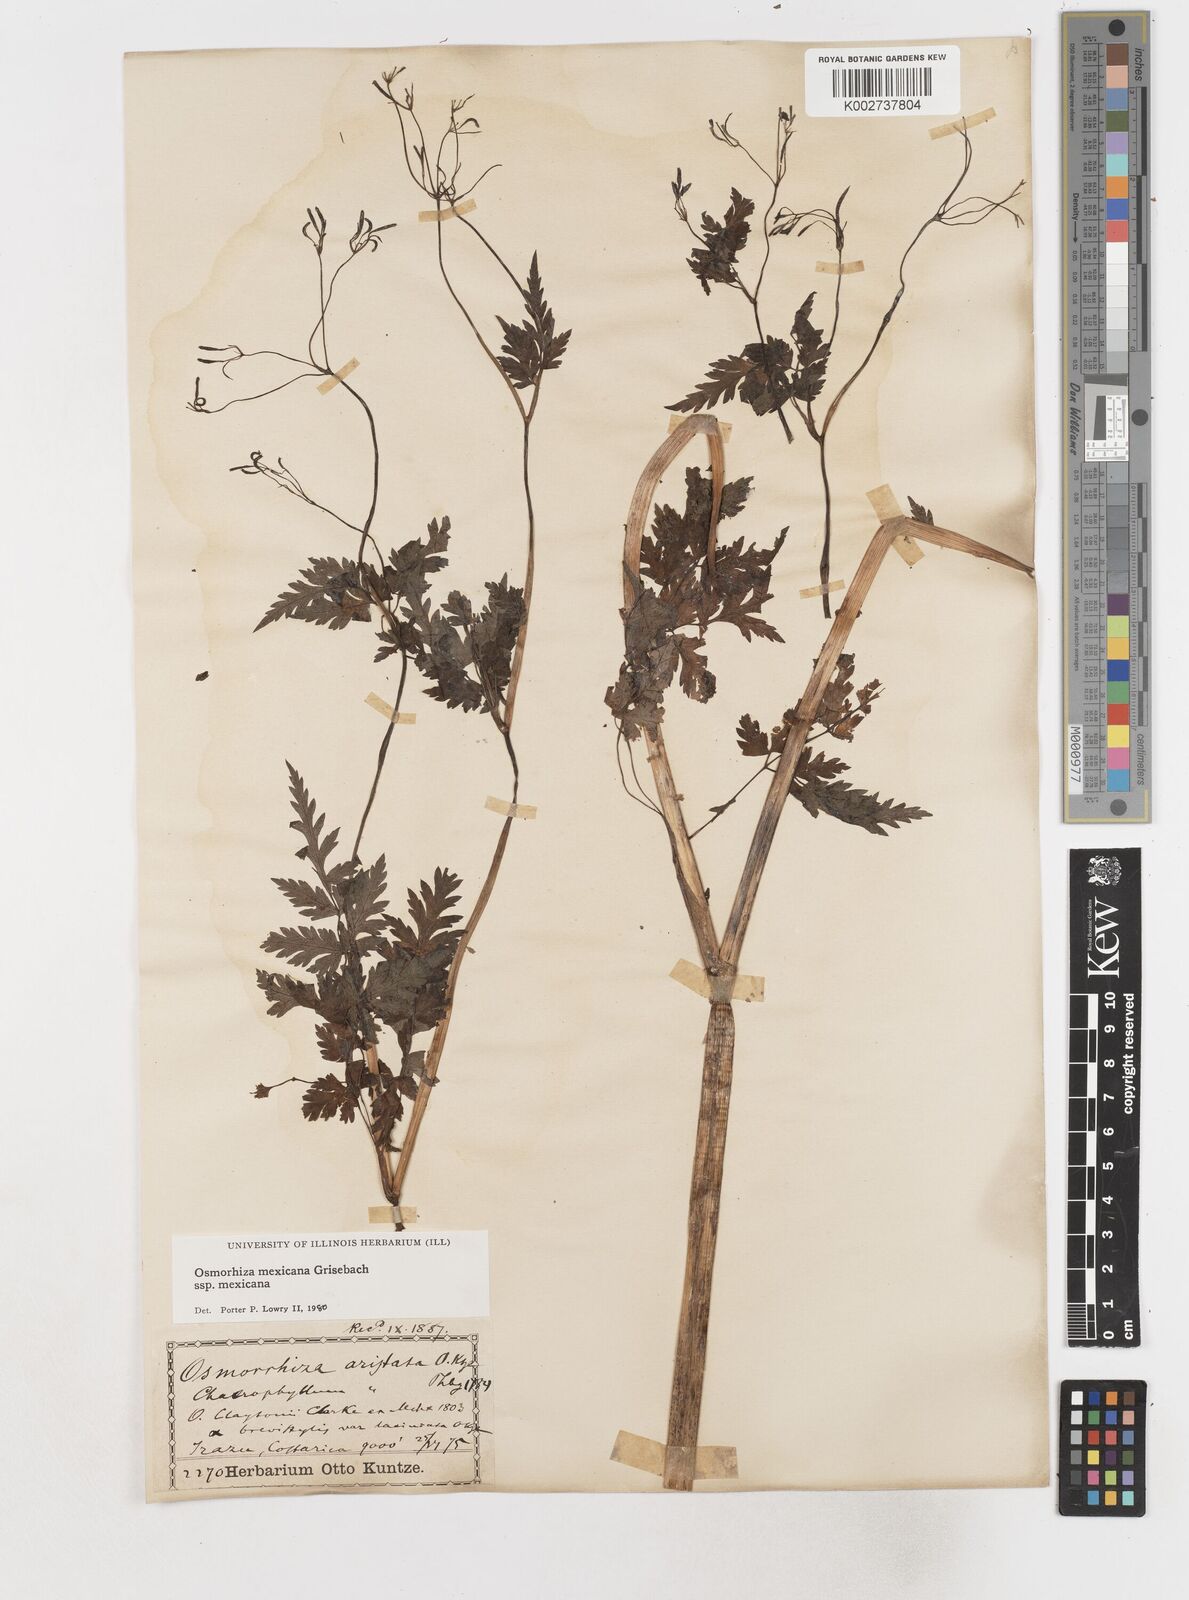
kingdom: Plantae
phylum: Tracheophyta
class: Magnoliopsida
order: Apiales
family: Apiaceae
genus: Osmorhiza
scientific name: Osmorhiza mexicana
